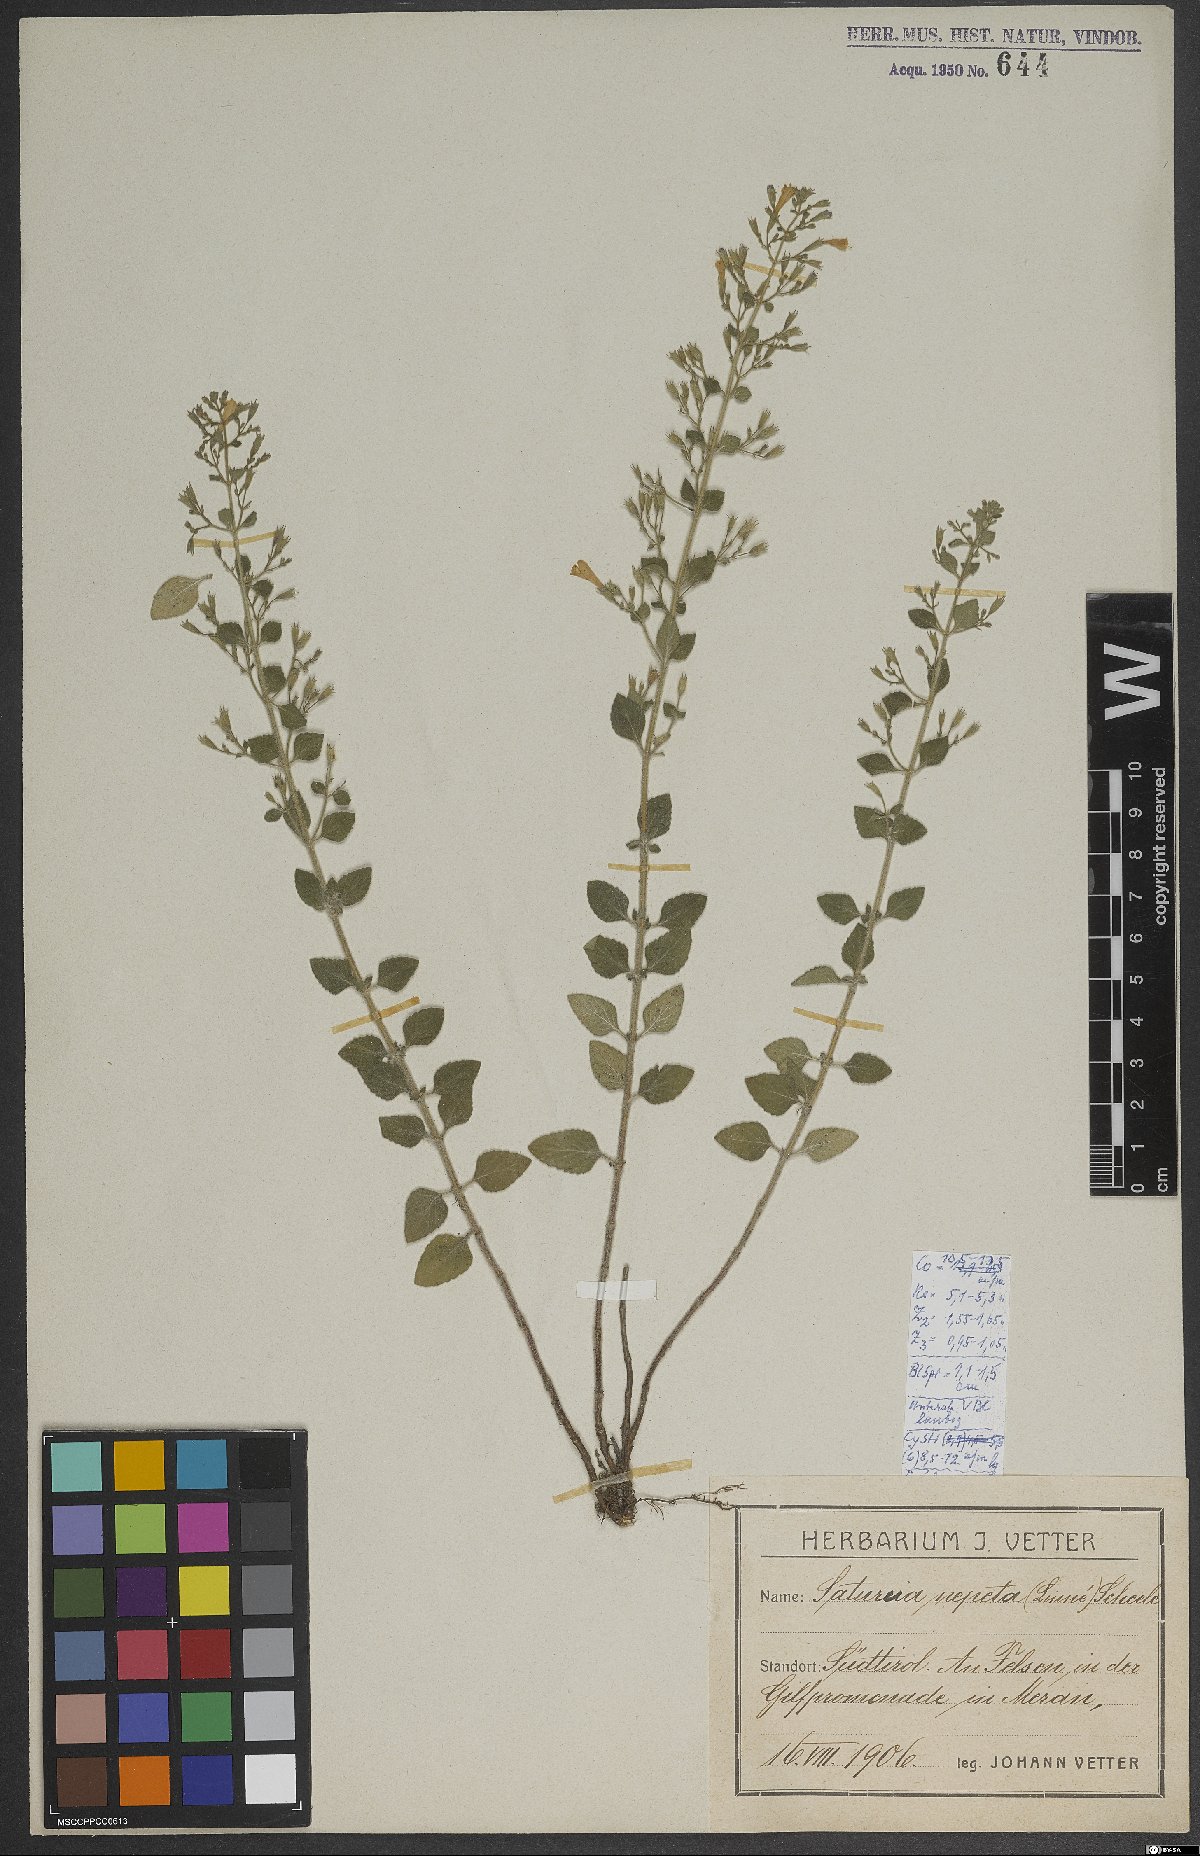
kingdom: Plantae
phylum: Tracheophyta
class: Magnoliopsida
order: Lamiales
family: Lamiaceae
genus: Clinopodium
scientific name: Clinopodium nepeta
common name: Lesser calamint
